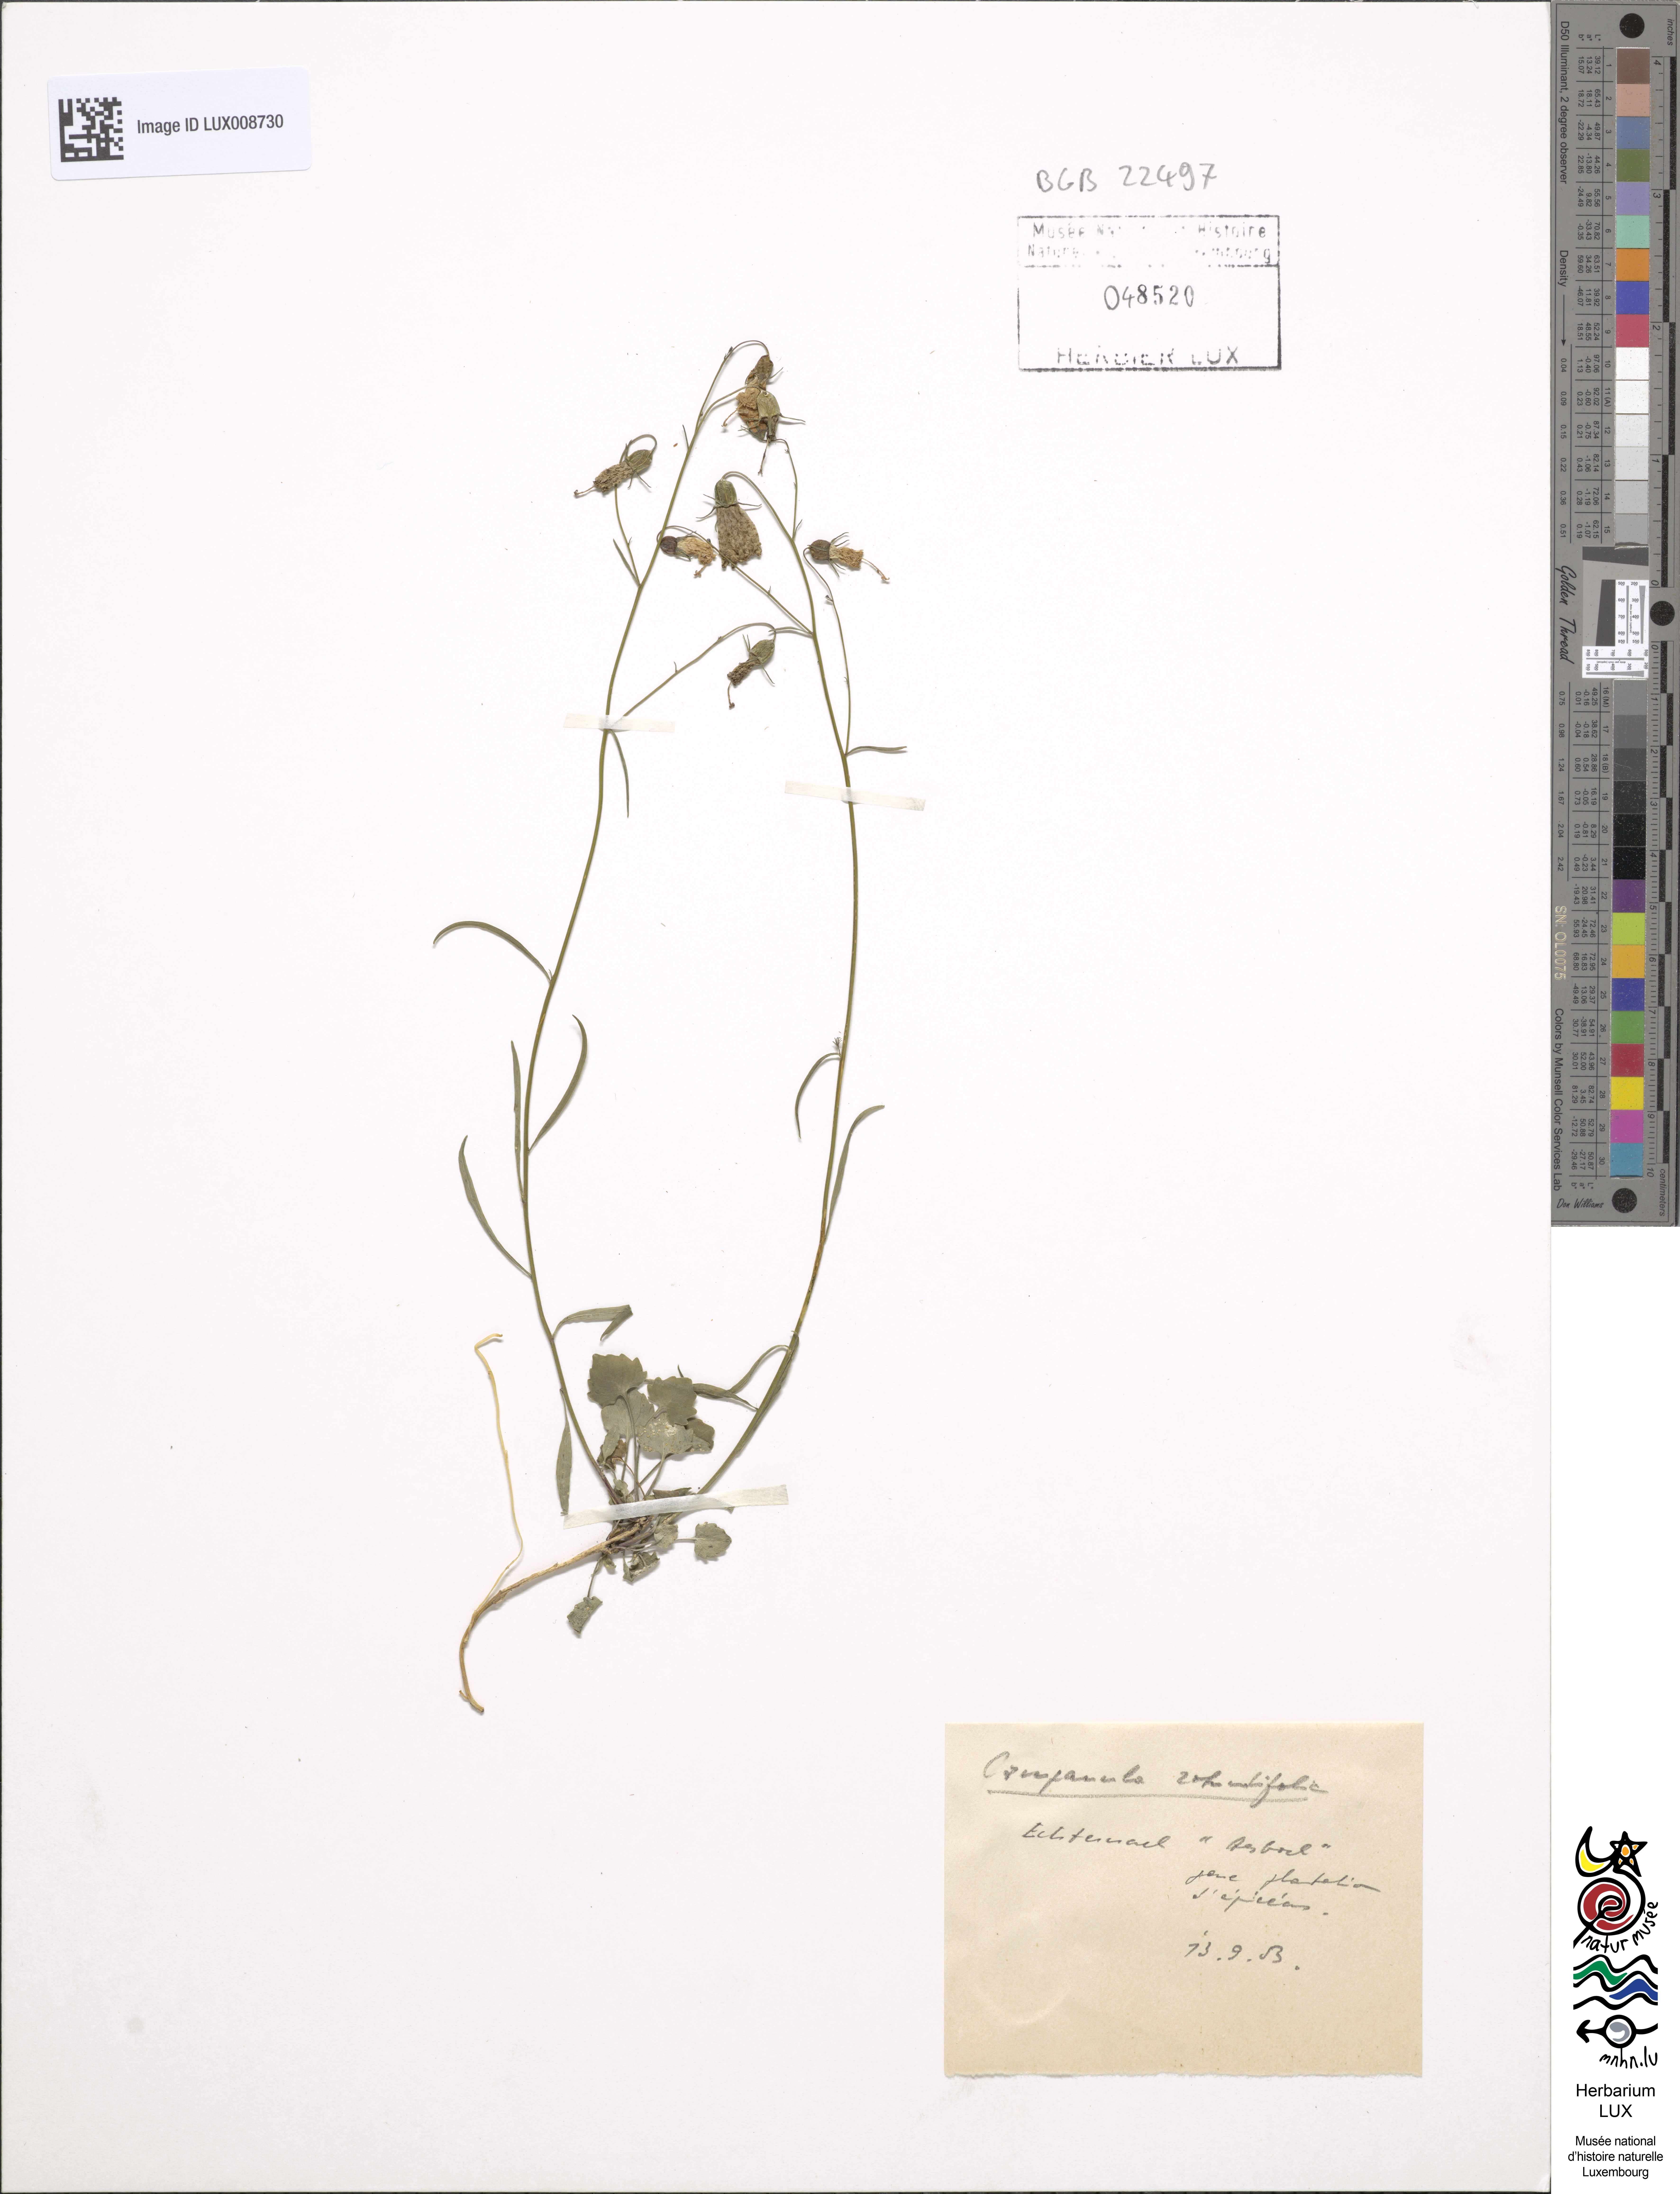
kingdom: Plantae
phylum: Tracheophyta
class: Magnoliopsida
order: Asterales
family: Campanulaceae
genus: Campanula
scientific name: Campanula rotundifolia
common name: Harebell
